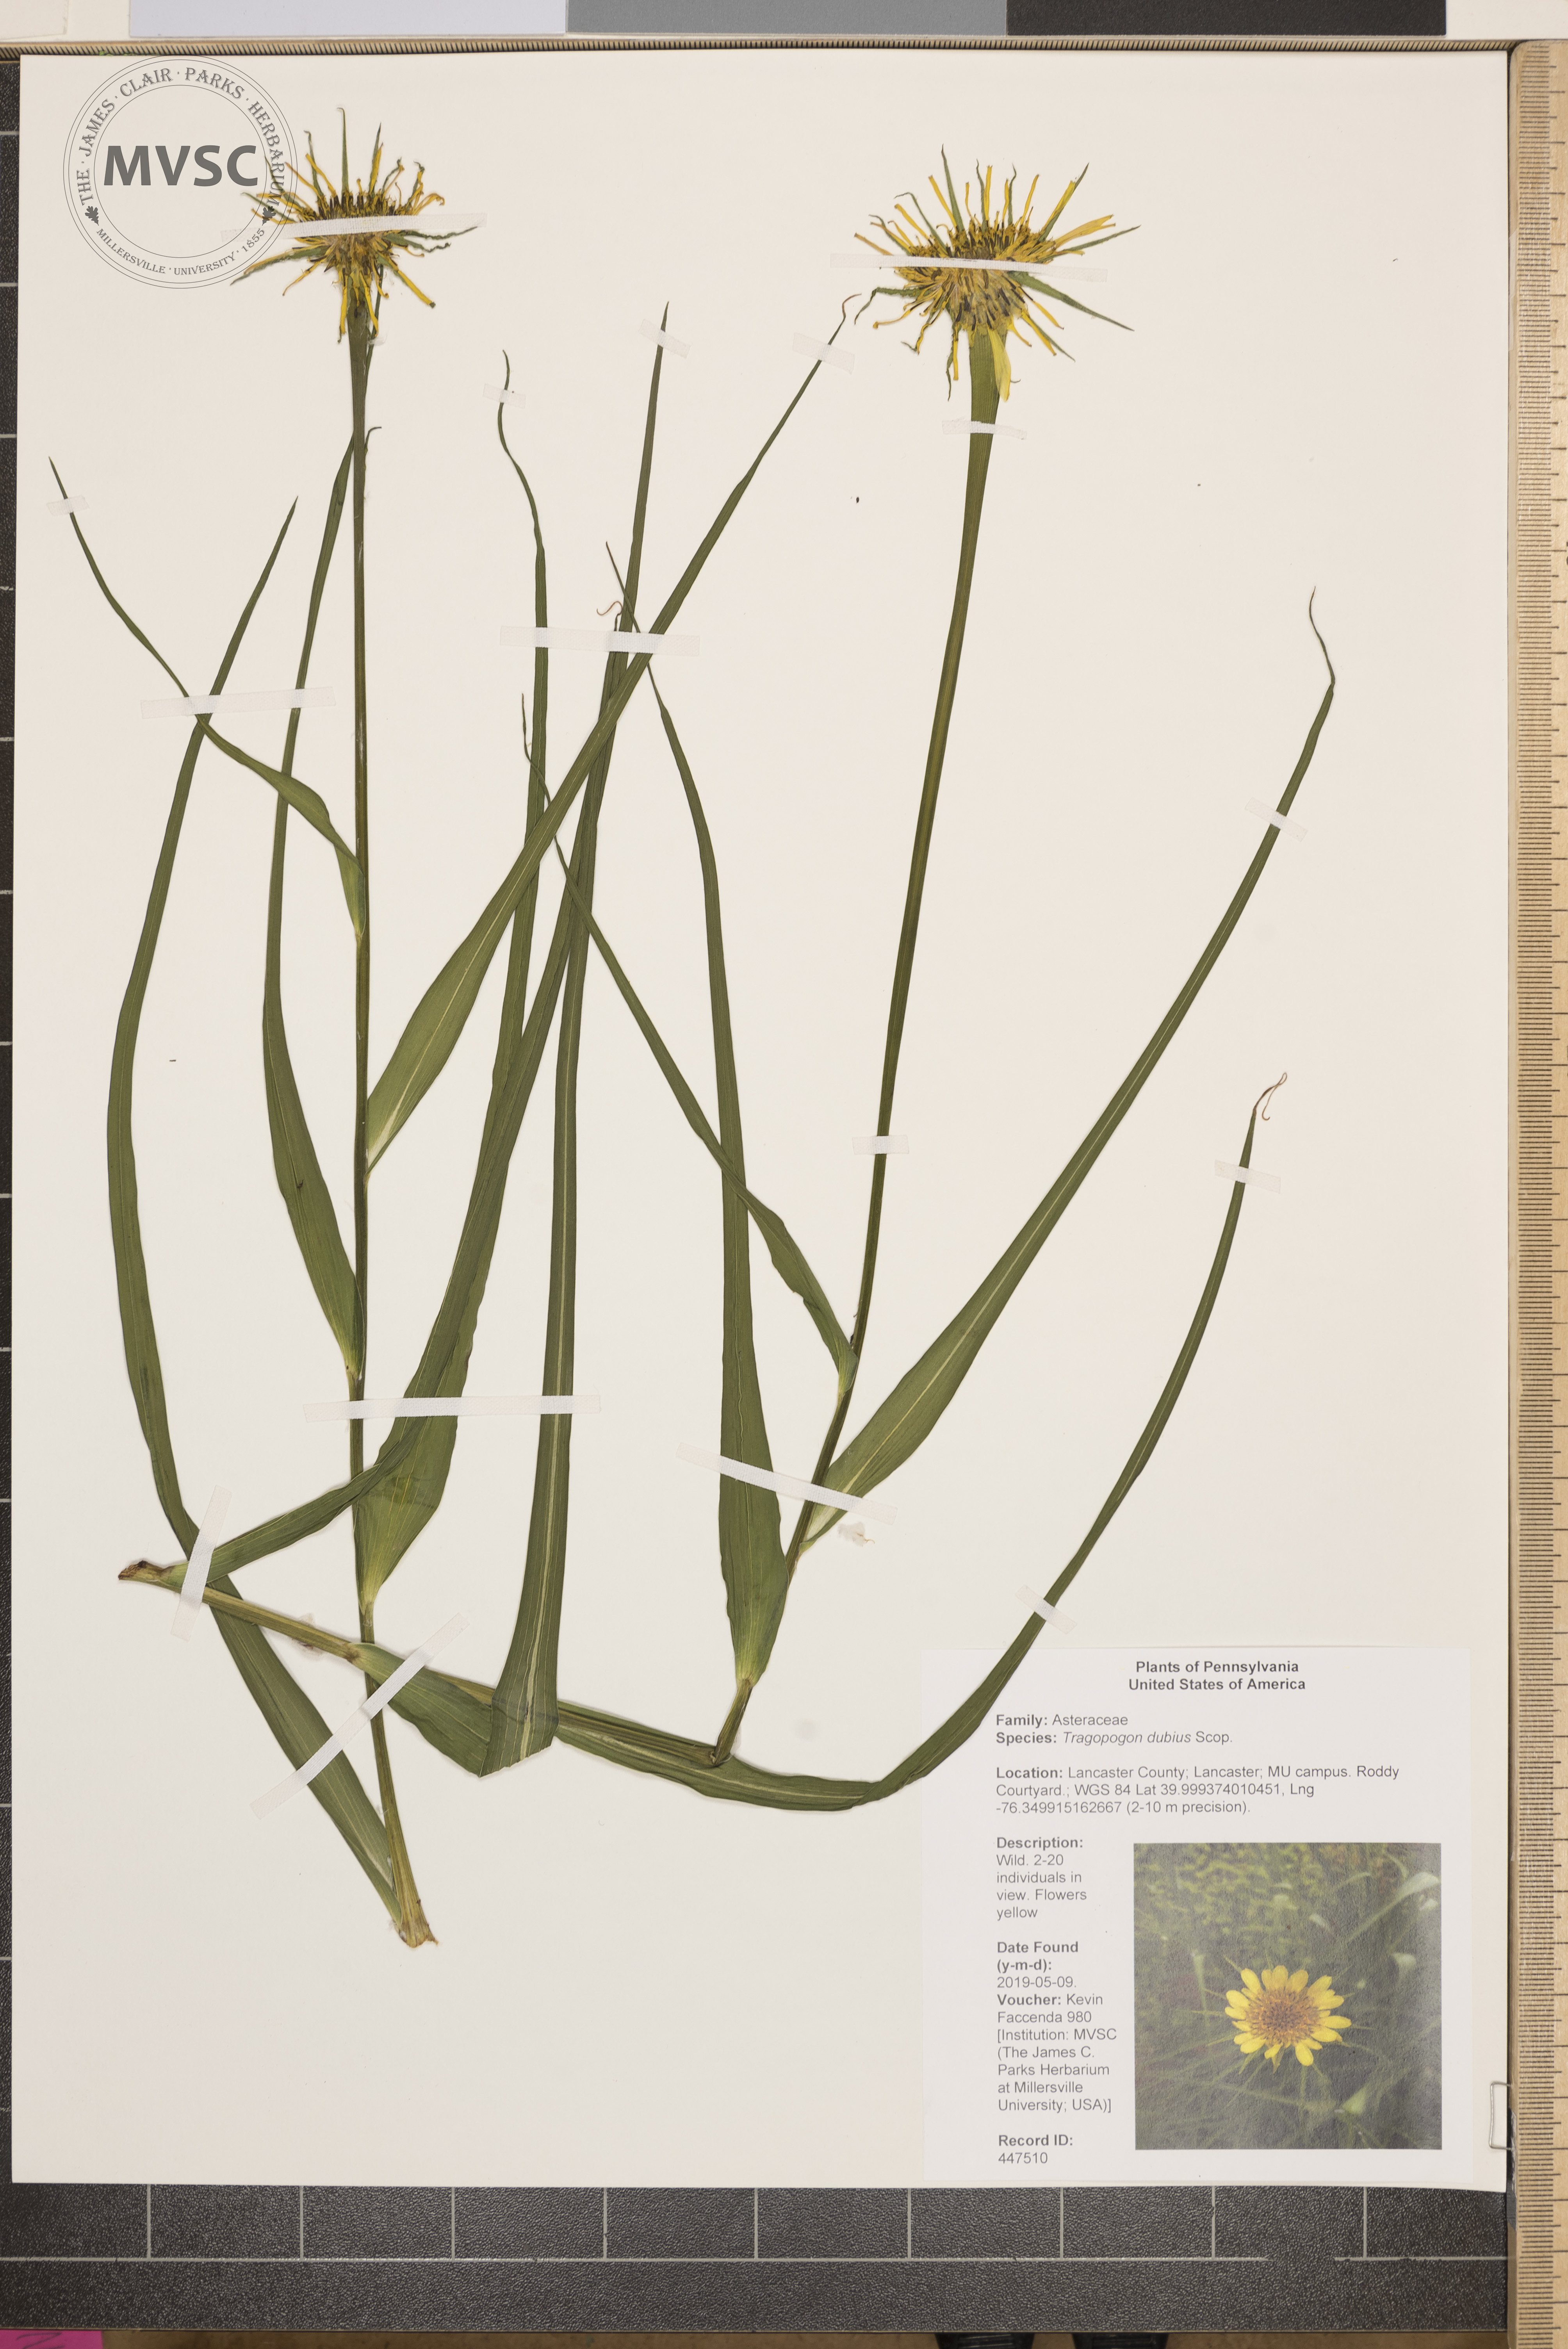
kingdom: Plantae
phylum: Tracheophyta
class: Magnoliopsida
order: Asterales
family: Asteraceae
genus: Tragopogon
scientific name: Tragopogon dubius
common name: Yellow salsify
